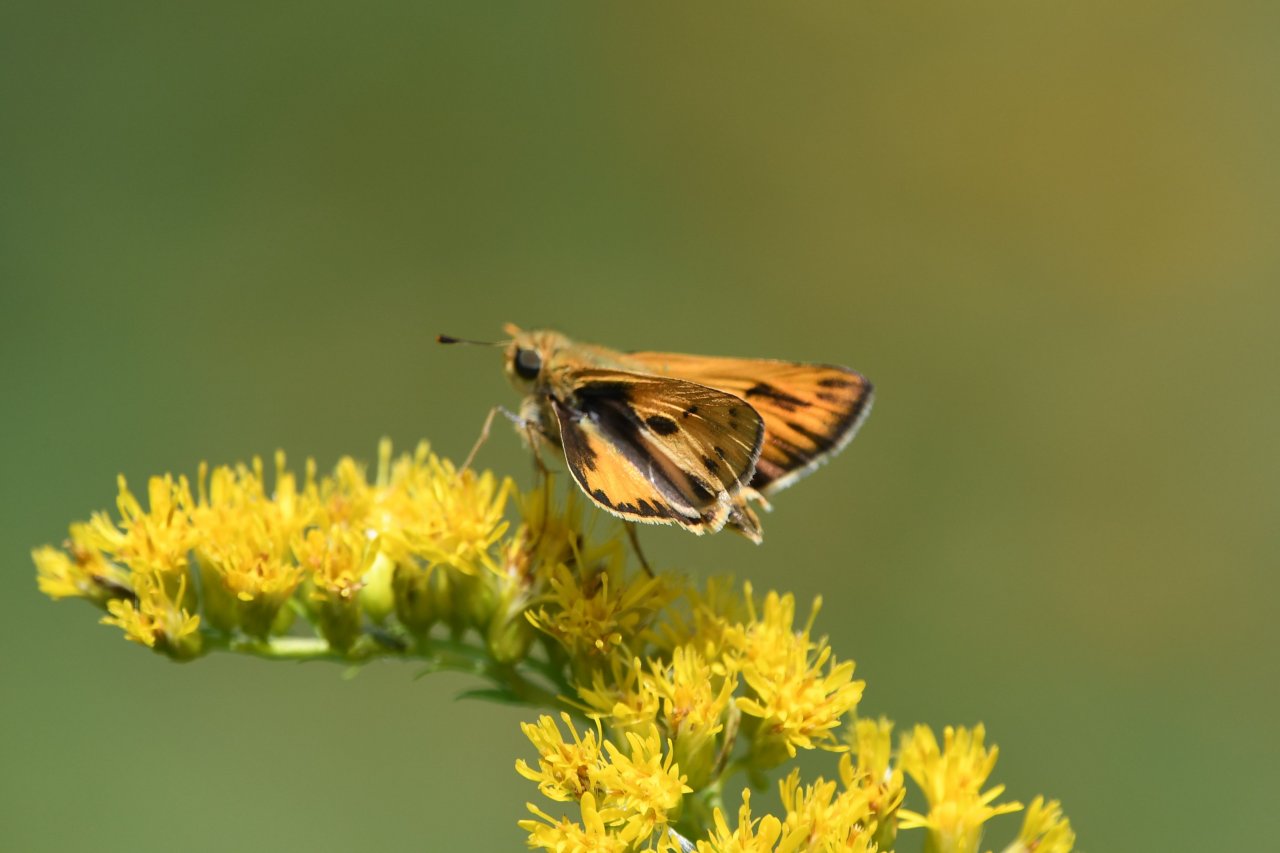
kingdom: Animalia
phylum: Arthropoda
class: Insecta
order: Lepidoptera
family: Hesperiidae
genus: Hylephila
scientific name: Hylephila phyleus
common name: Fiery Skipper
